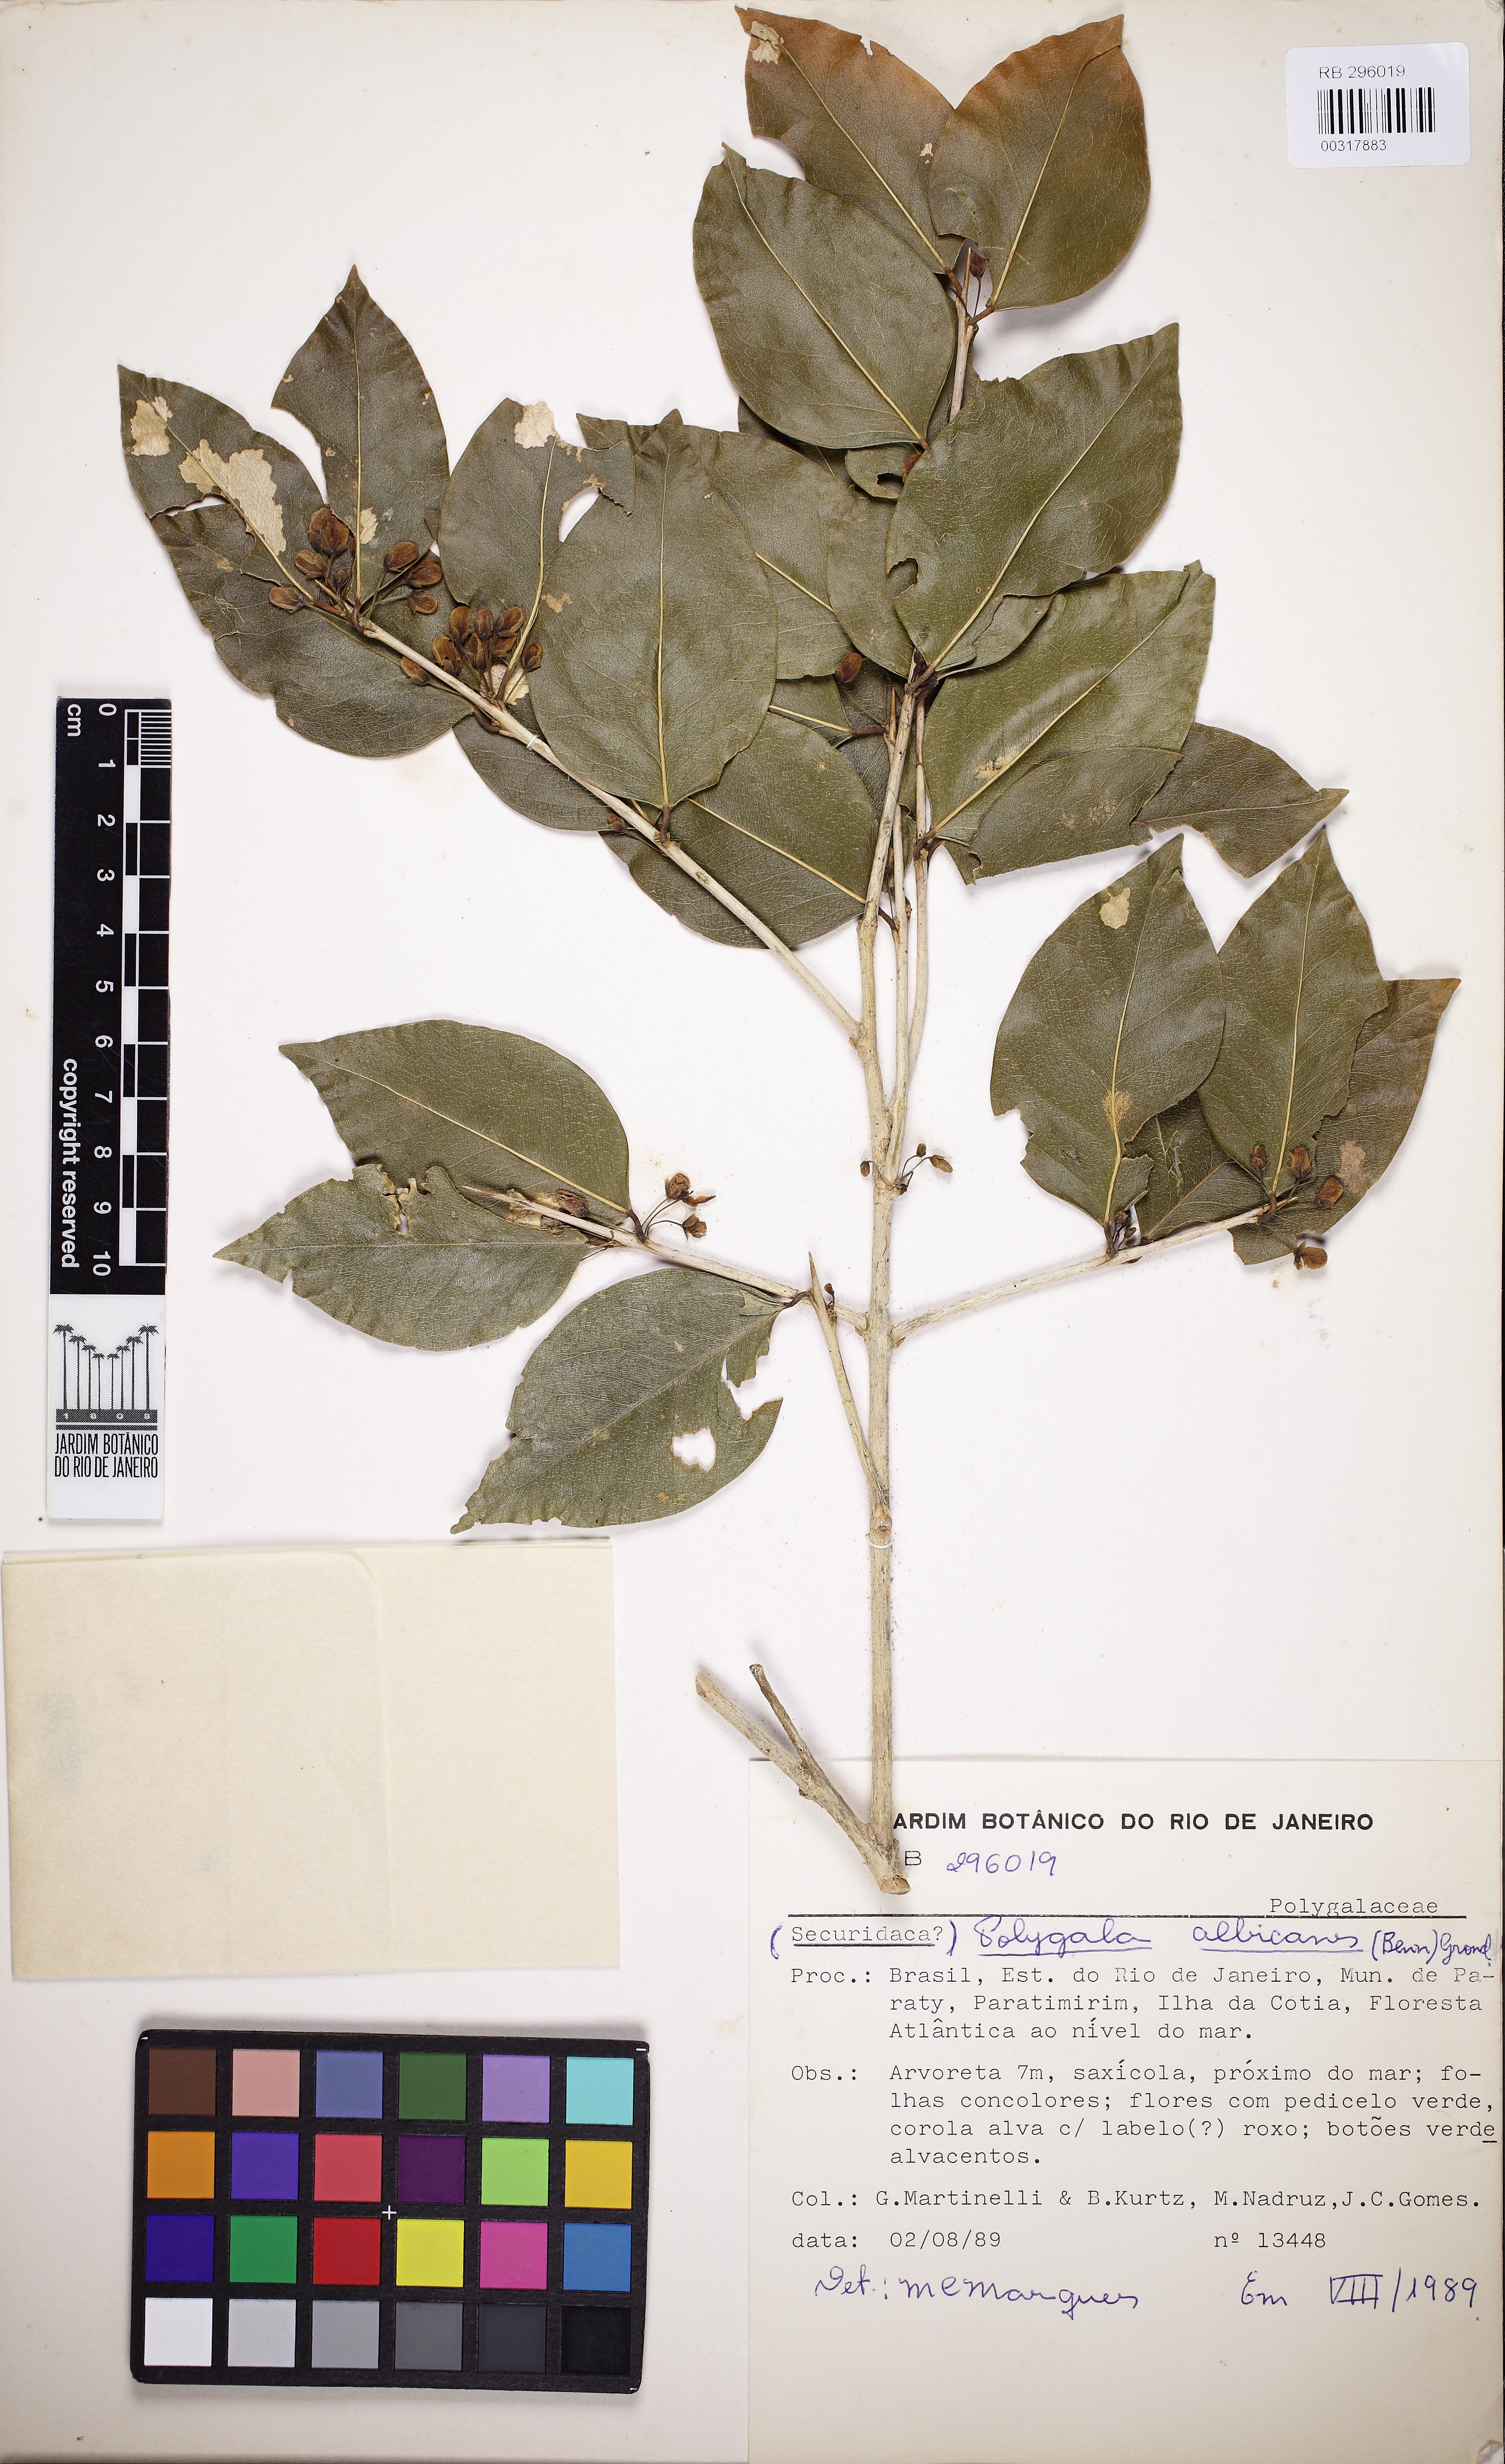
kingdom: Plantae
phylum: Tracheophyta
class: Magnoliopsida
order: Fabales
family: Polygalaceae
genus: Acanthocladus
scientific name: Acanthocladus dichromus
